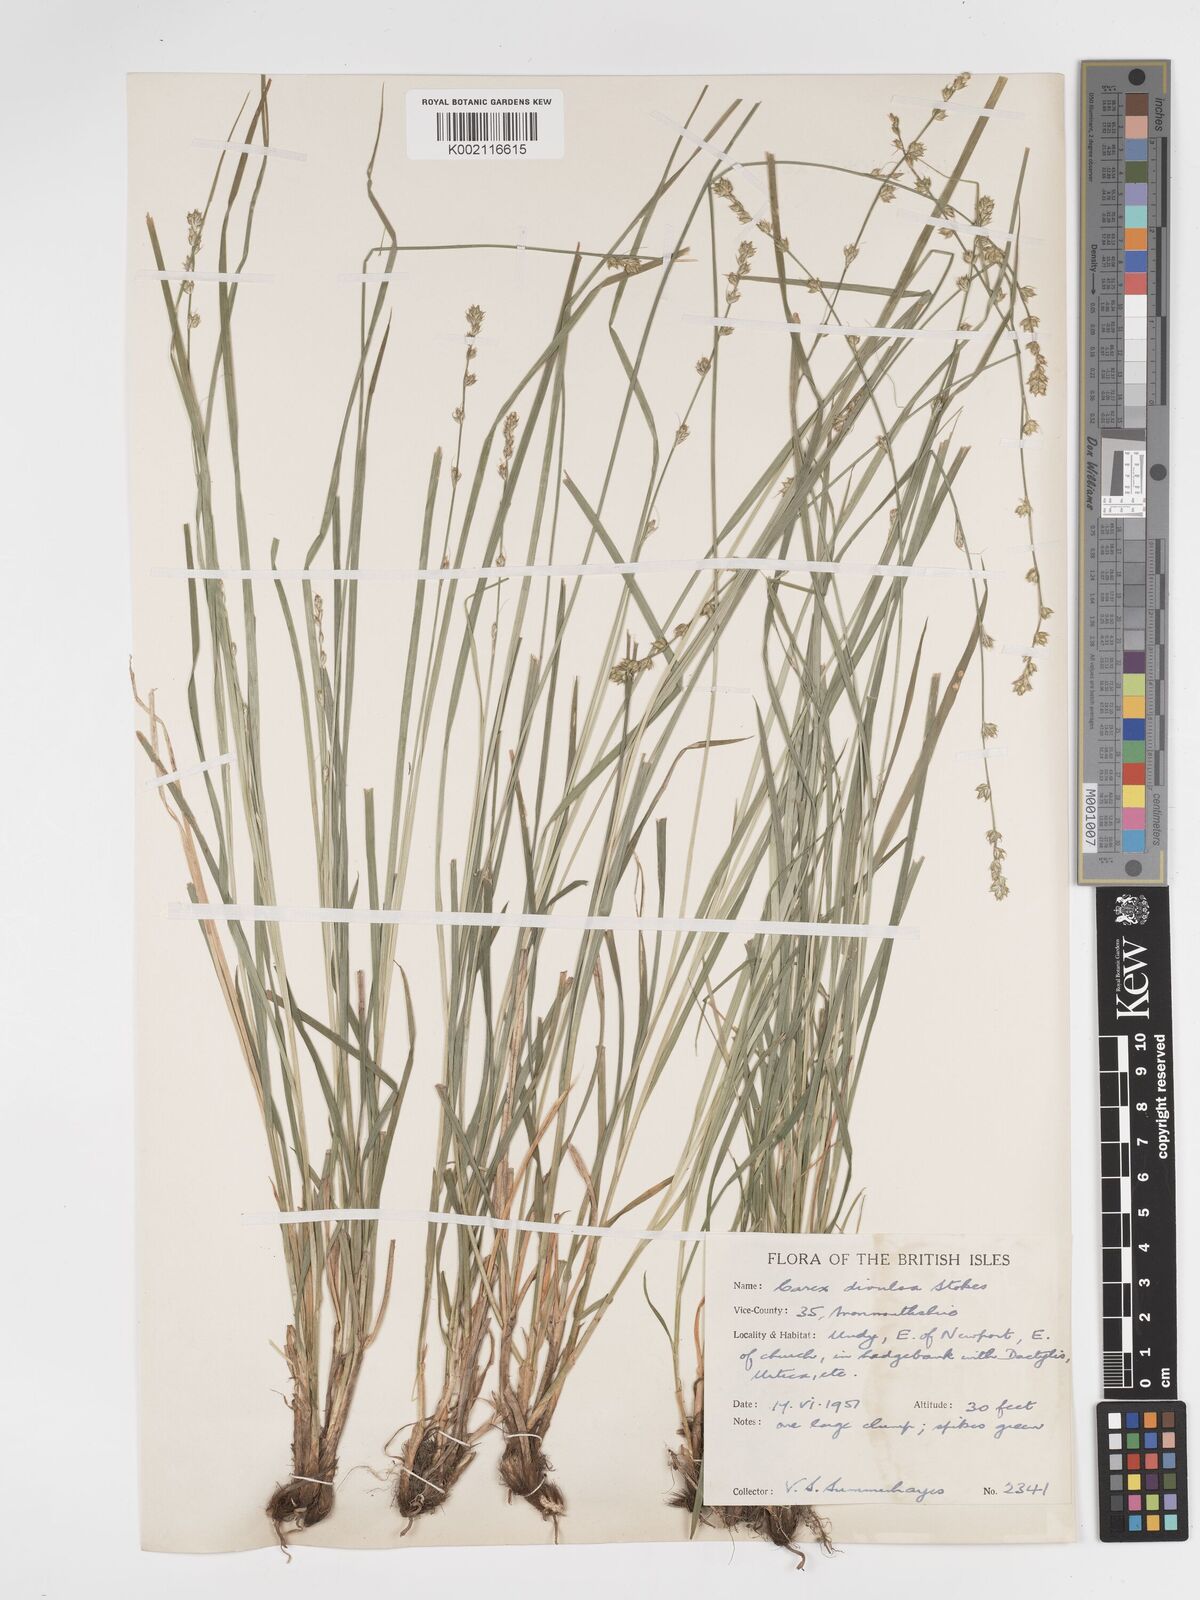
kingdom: Plantae
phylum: Tracheophyta
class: Liliopsida
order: Poales
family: Cyperaceae
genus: Carex
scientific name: Carex divulsa
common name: Grassland sedge
